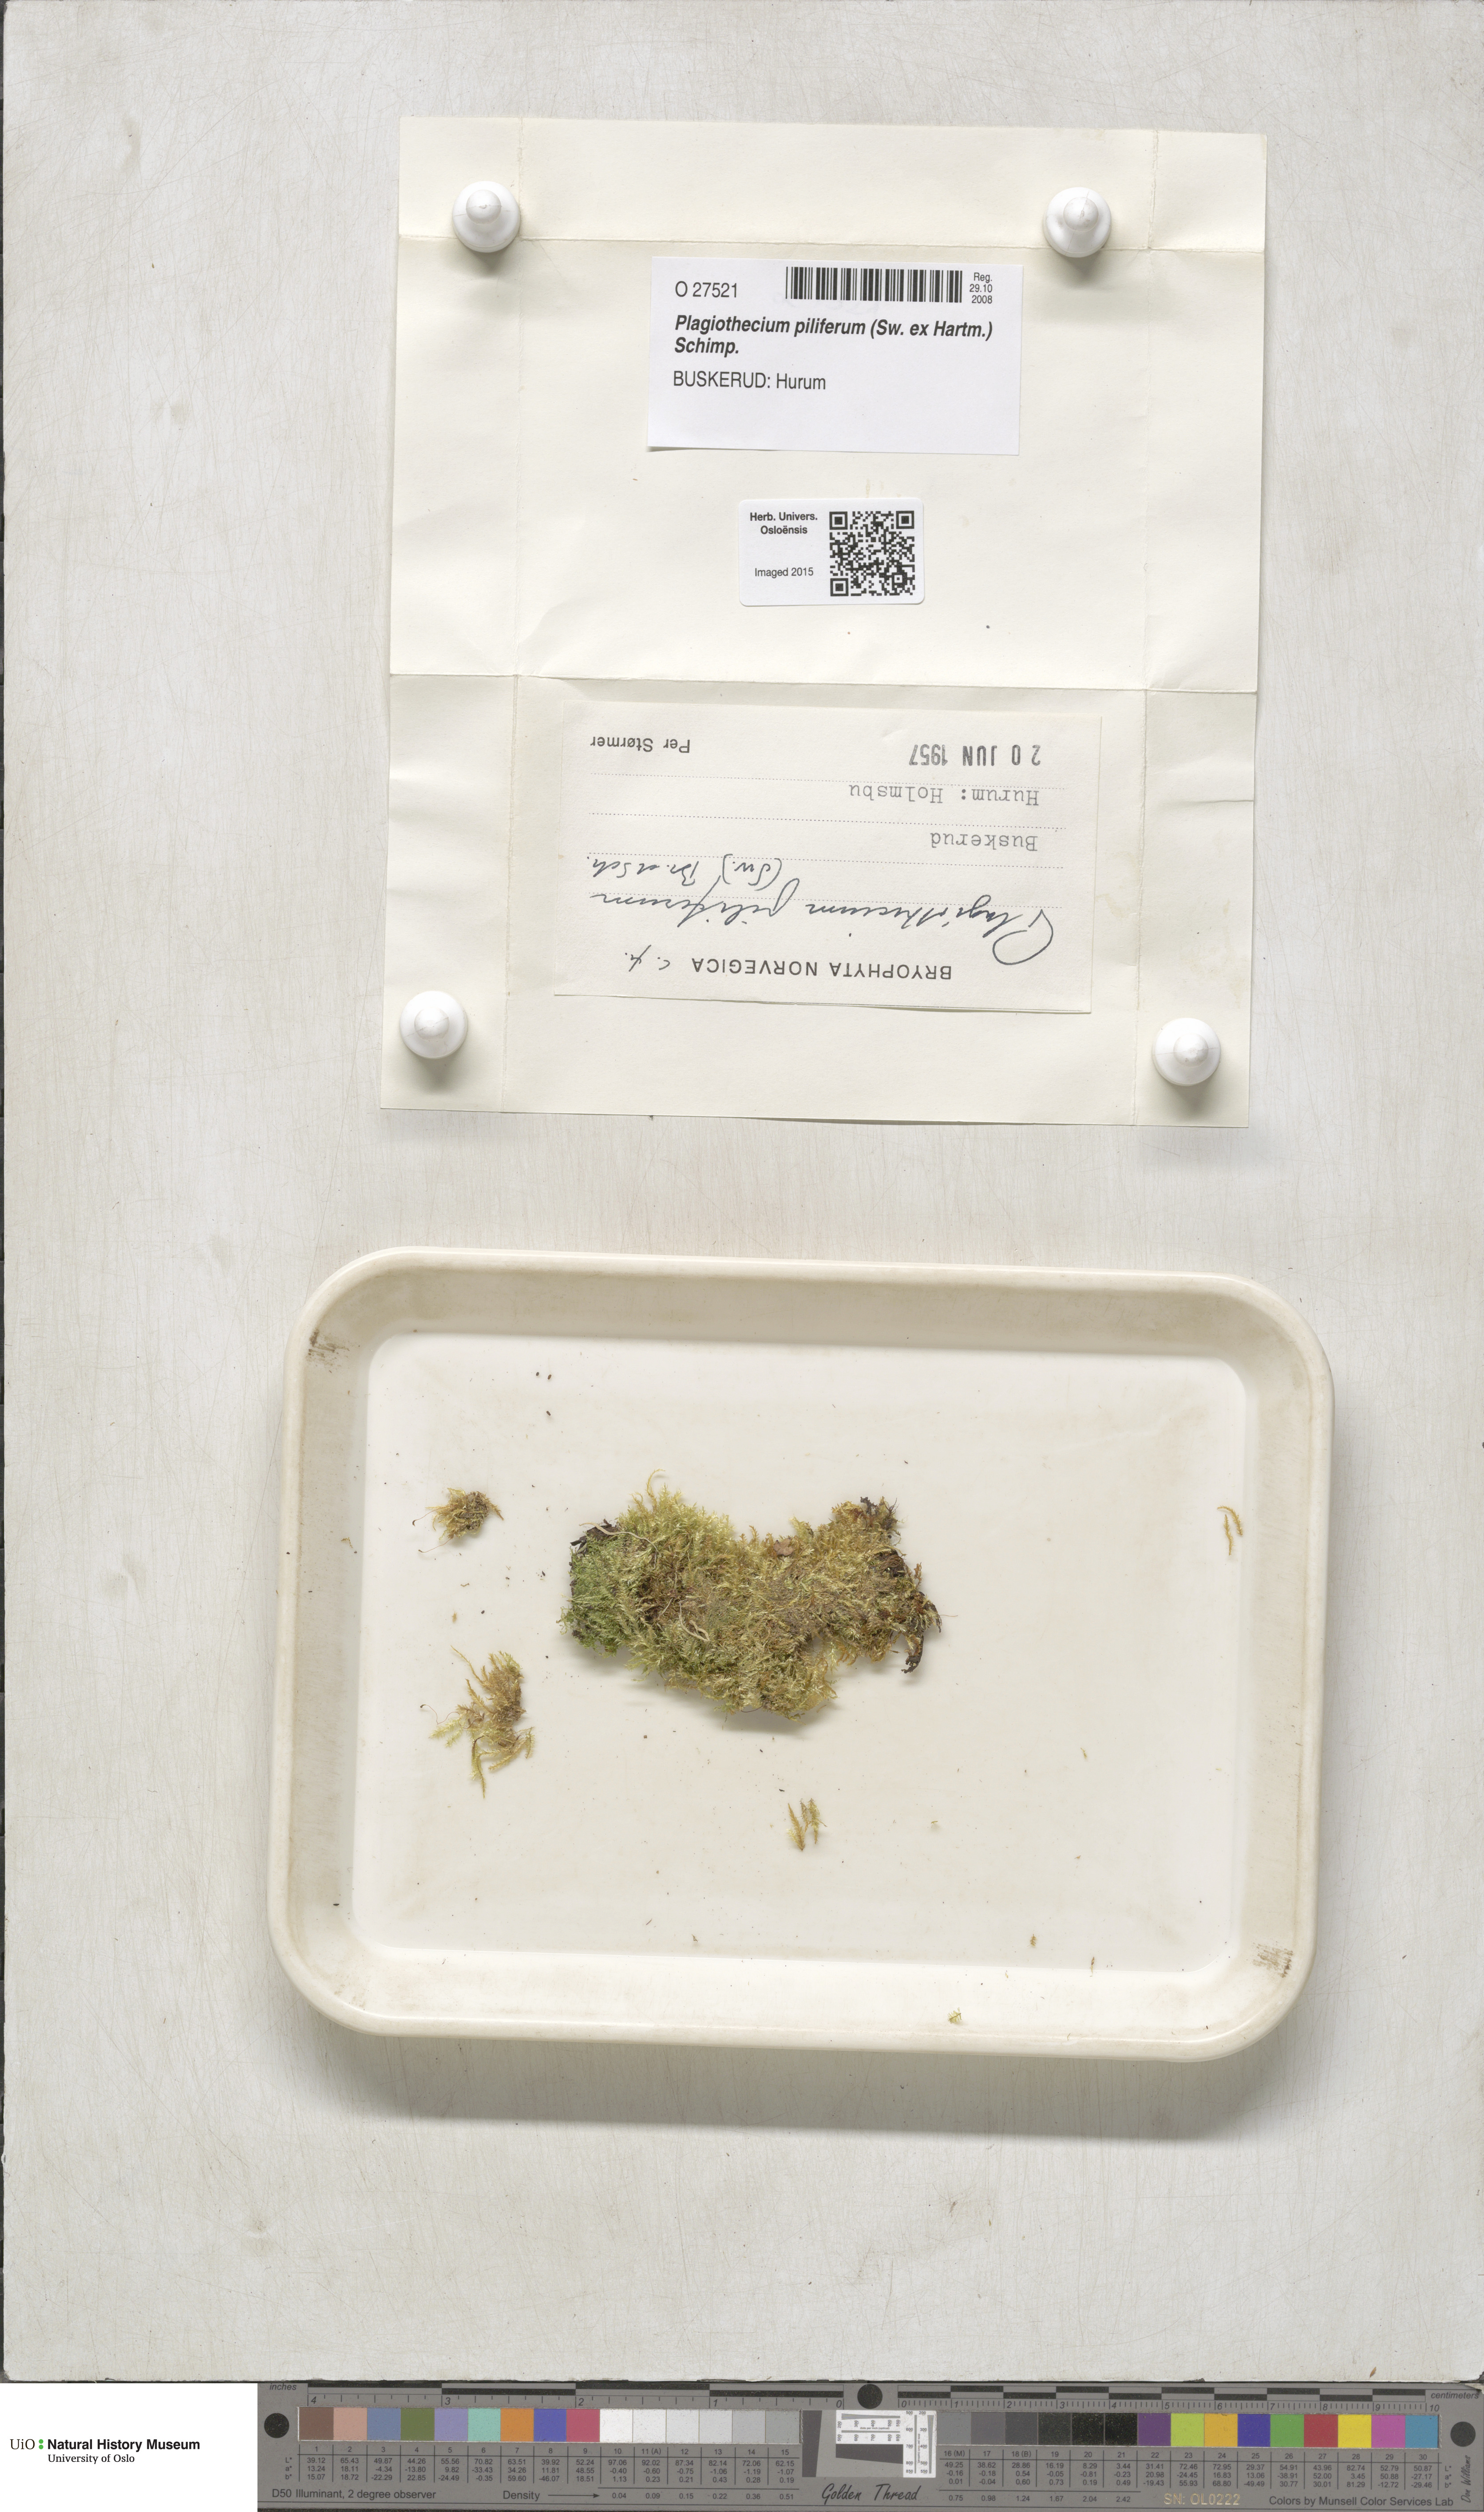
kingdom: Plantae
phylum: Bryophyta
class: Bryopsida
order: Hypnales
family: Plagiotheciaceae
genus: Rectithecium
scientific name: Rectithecium piliferum
